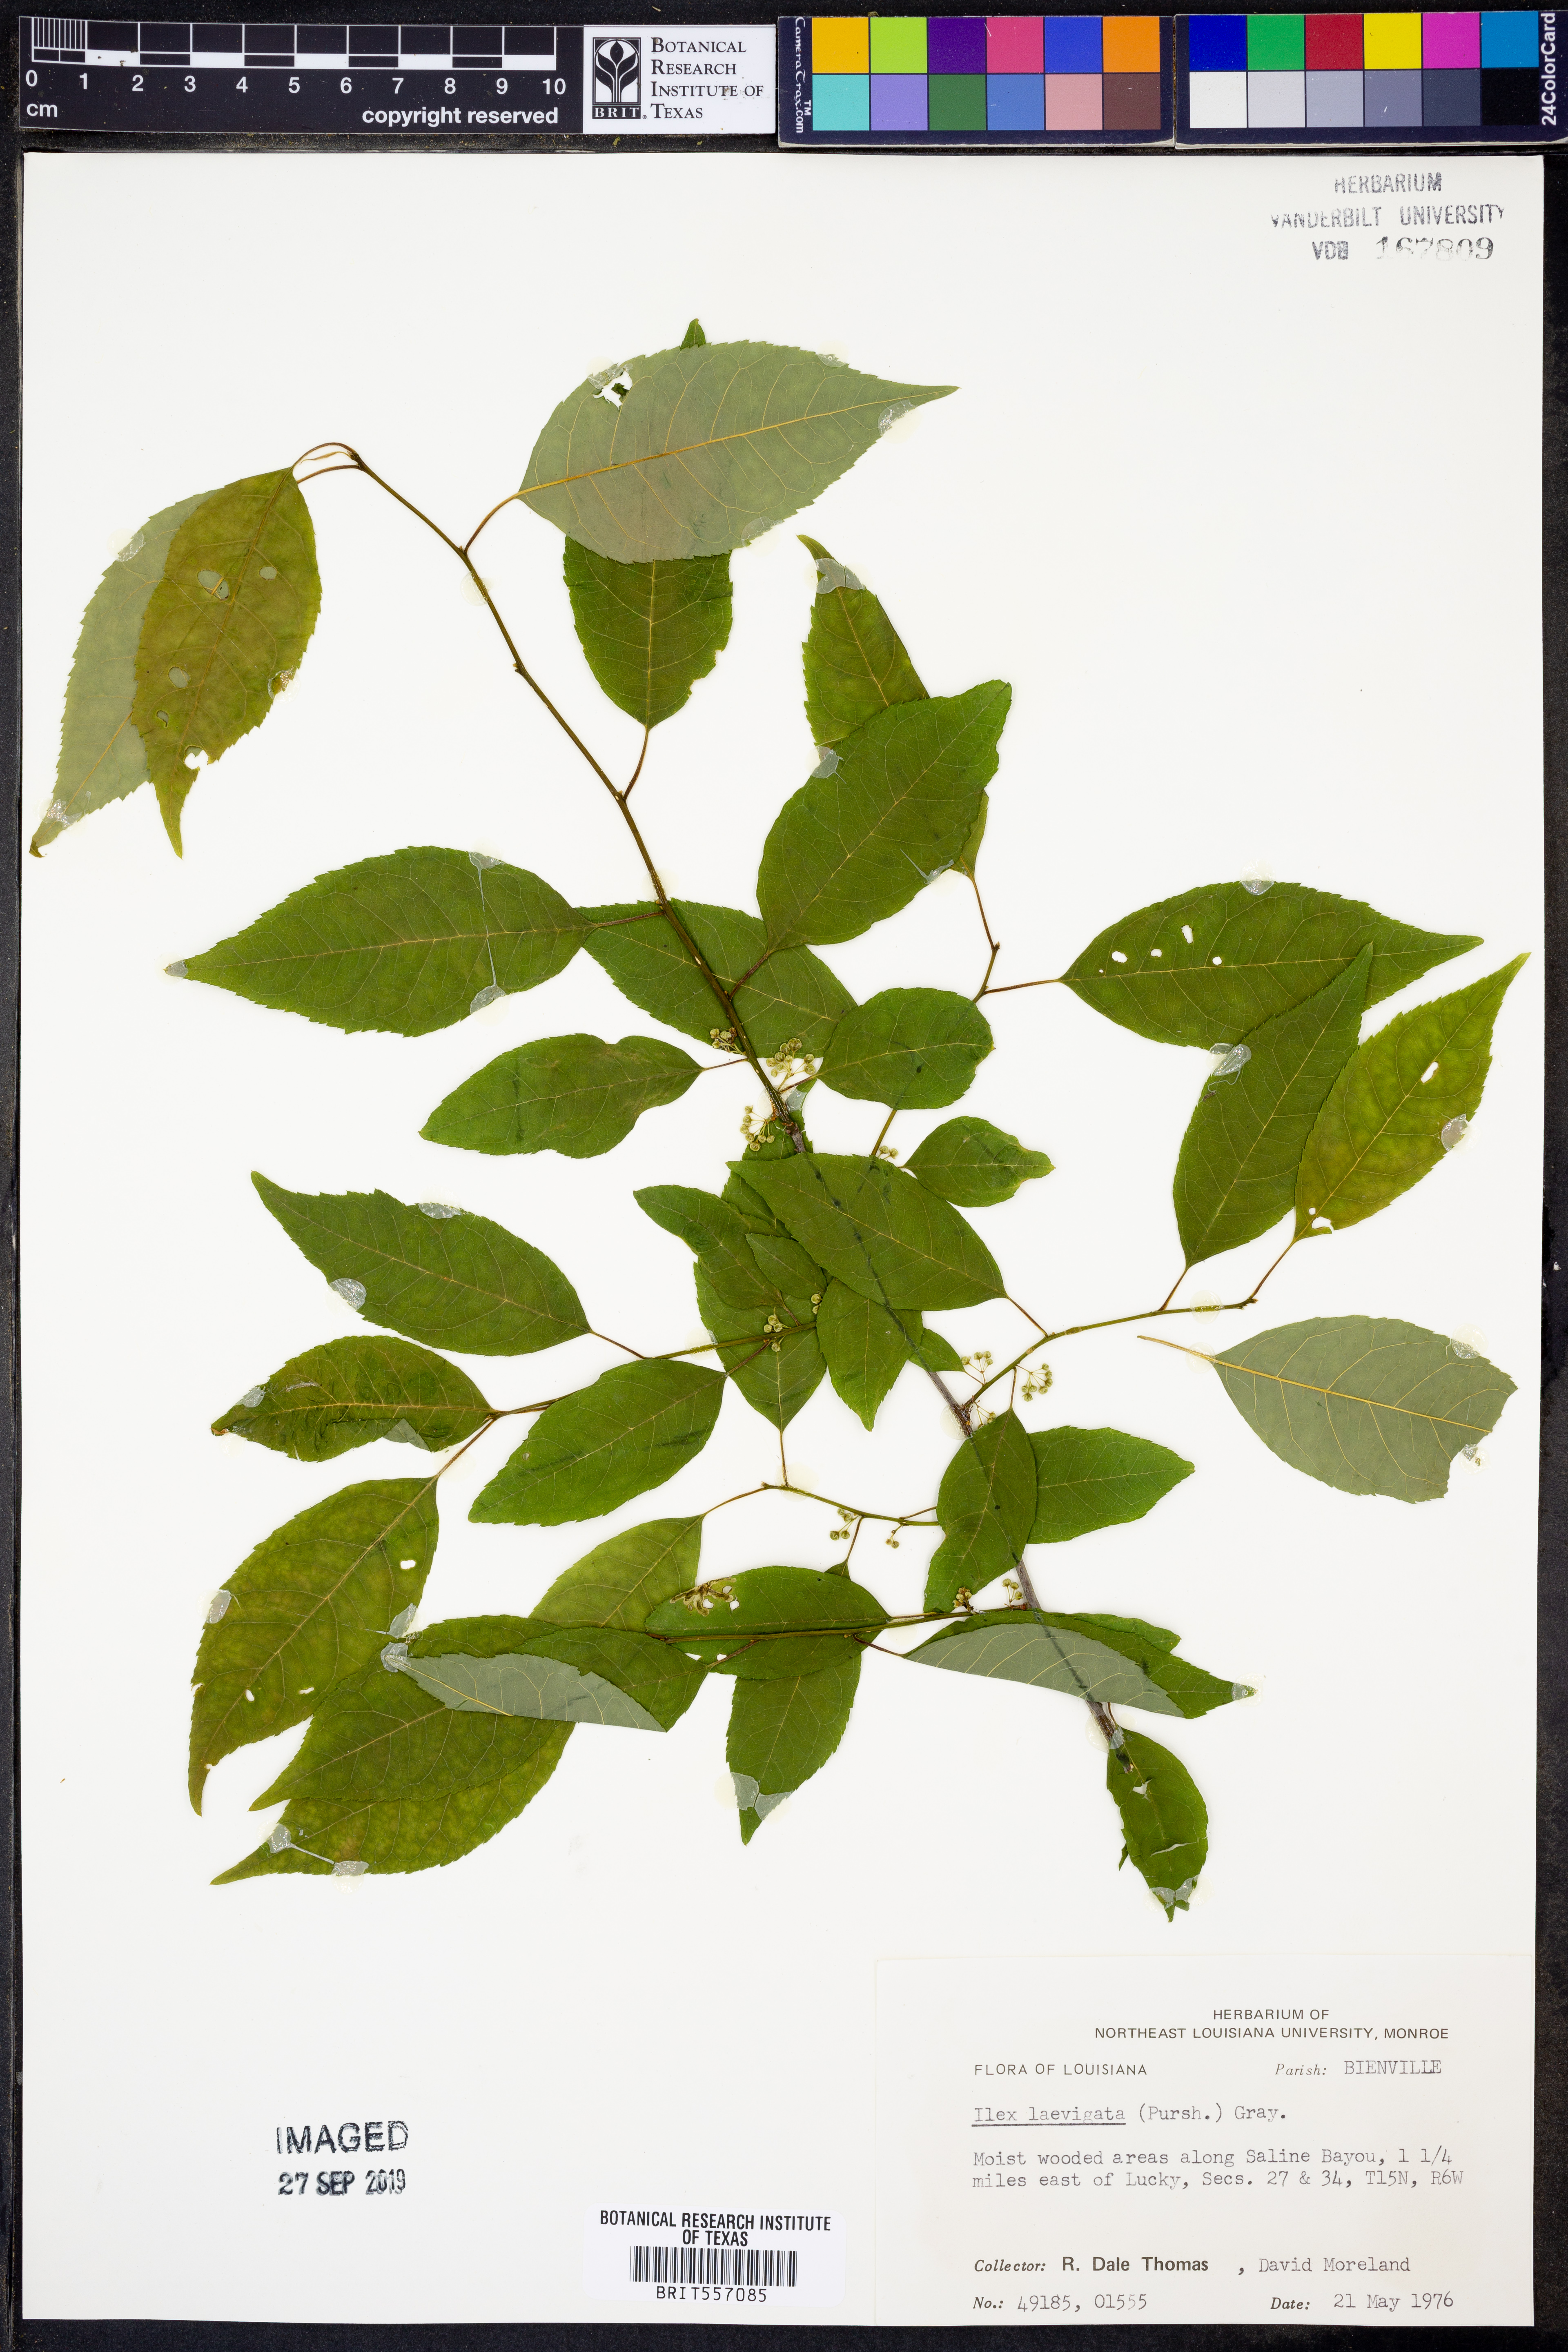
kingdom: Plantae
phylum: Tracheophyta
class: Magnoliopsida
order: Aquifoliales
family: Aquifoliaceae
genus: Ilex
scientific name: Ilex laevigata
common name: Smooth winterberry
